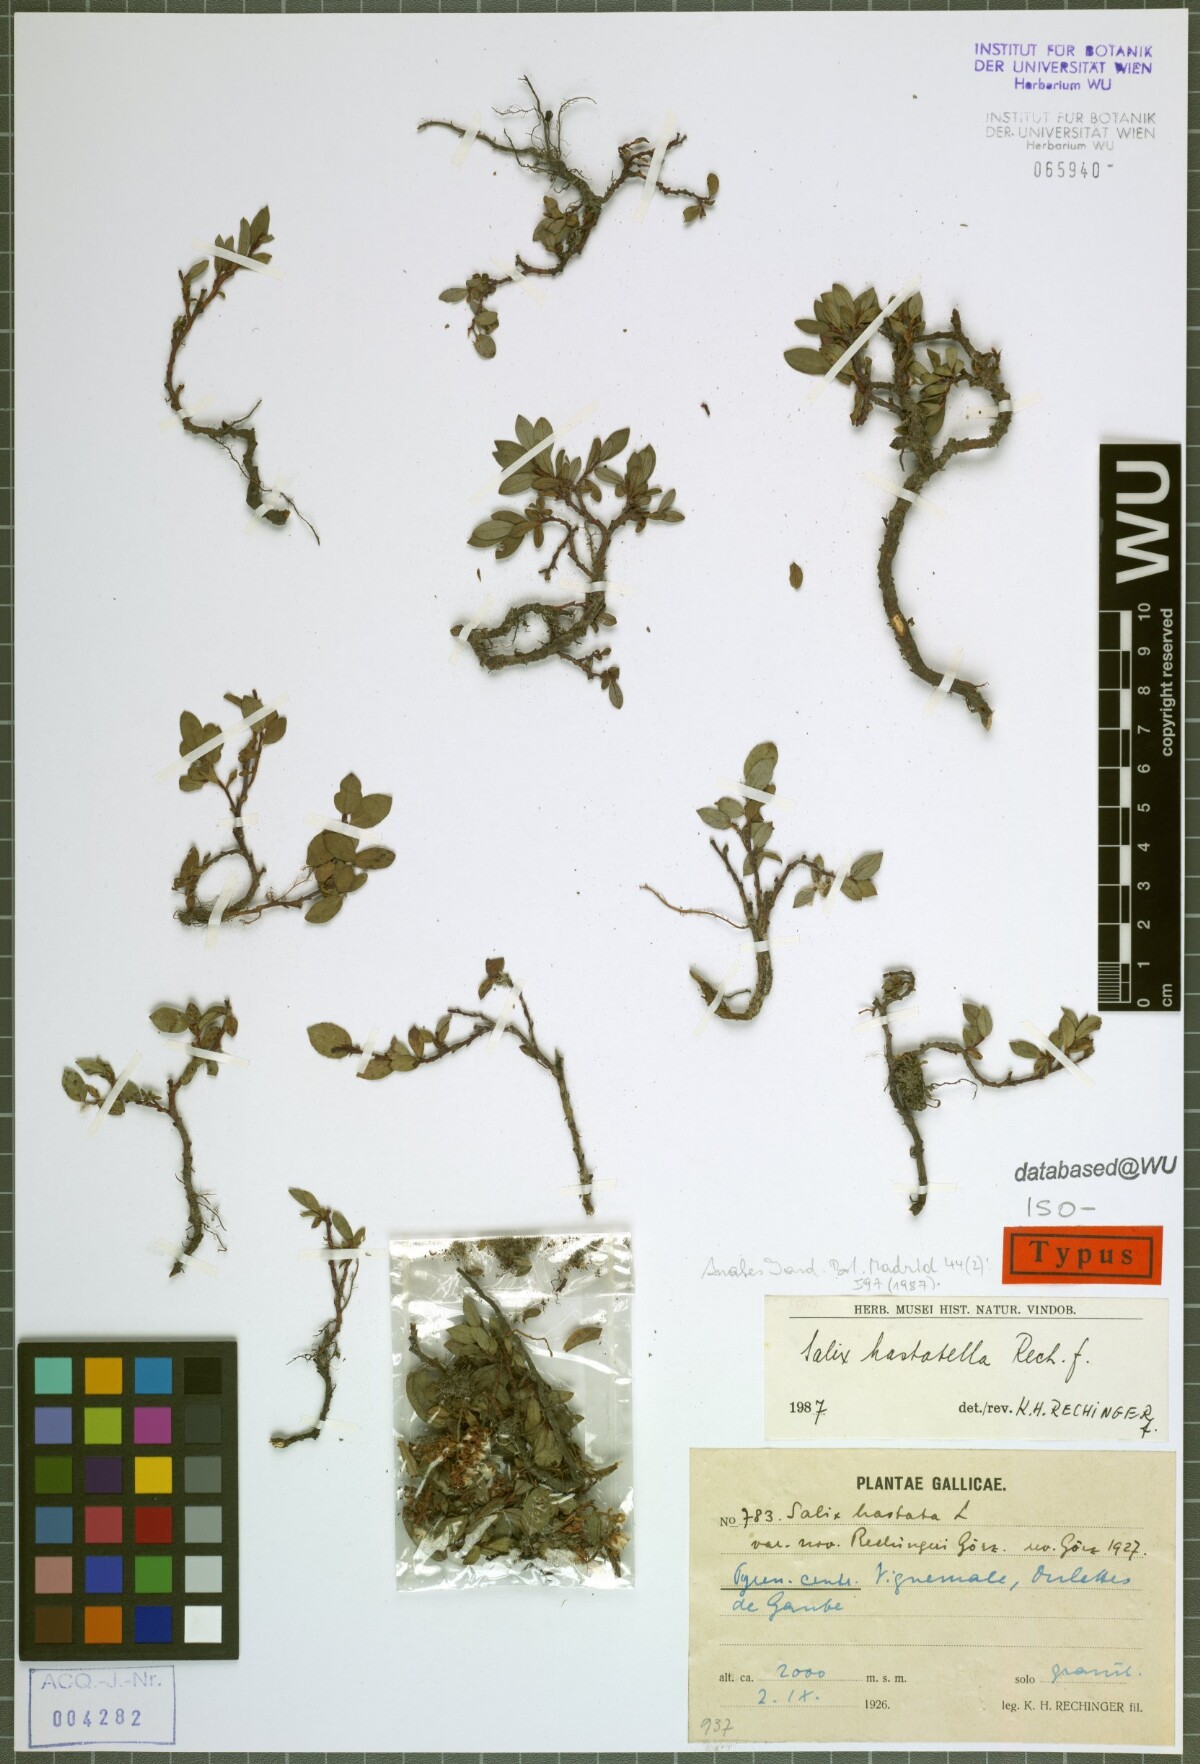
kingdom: Plantae
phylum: Tracheophyta
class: Magnoliopsida
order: Malpighiales
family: Salicaceae
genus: Salix
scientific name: Salix hastata
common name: Halberd willow
